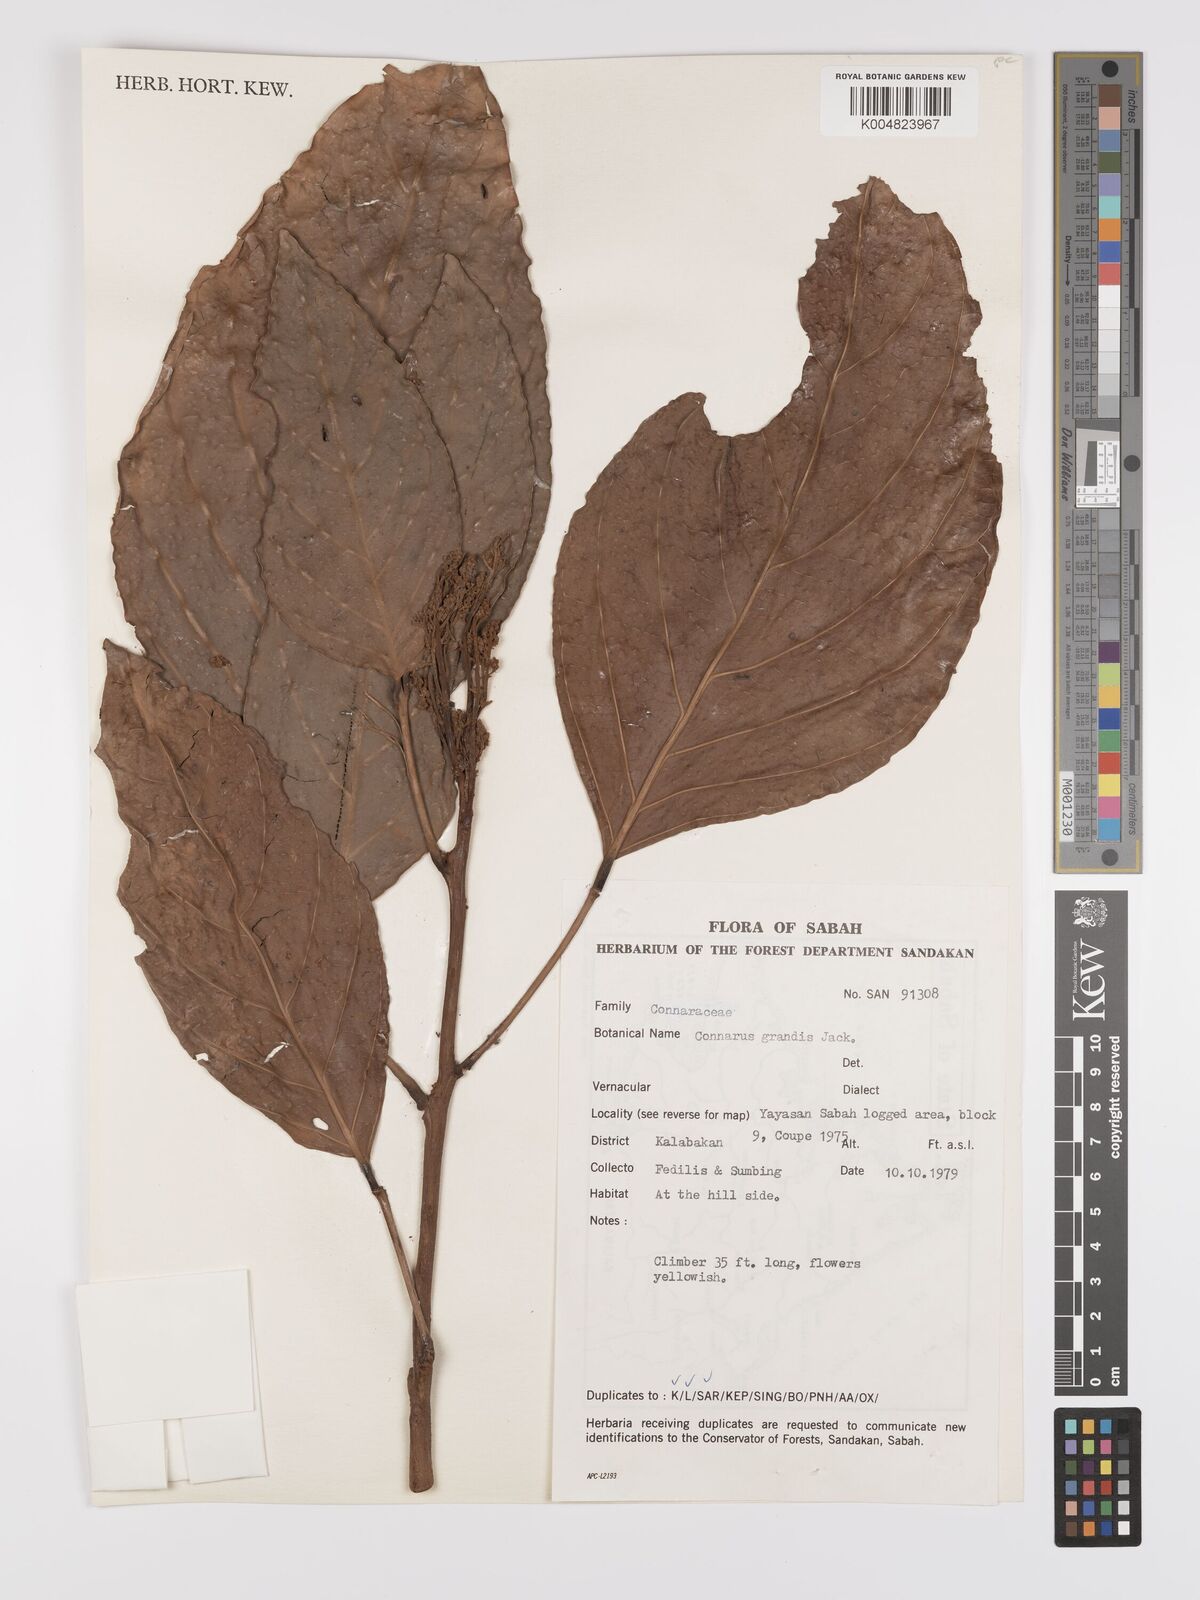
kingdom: Plantae
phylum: Tracheophyta
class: Magnoliopsida
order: Oxalidales
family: Connaraceae
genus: Connarus
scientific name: Connarus grandis
